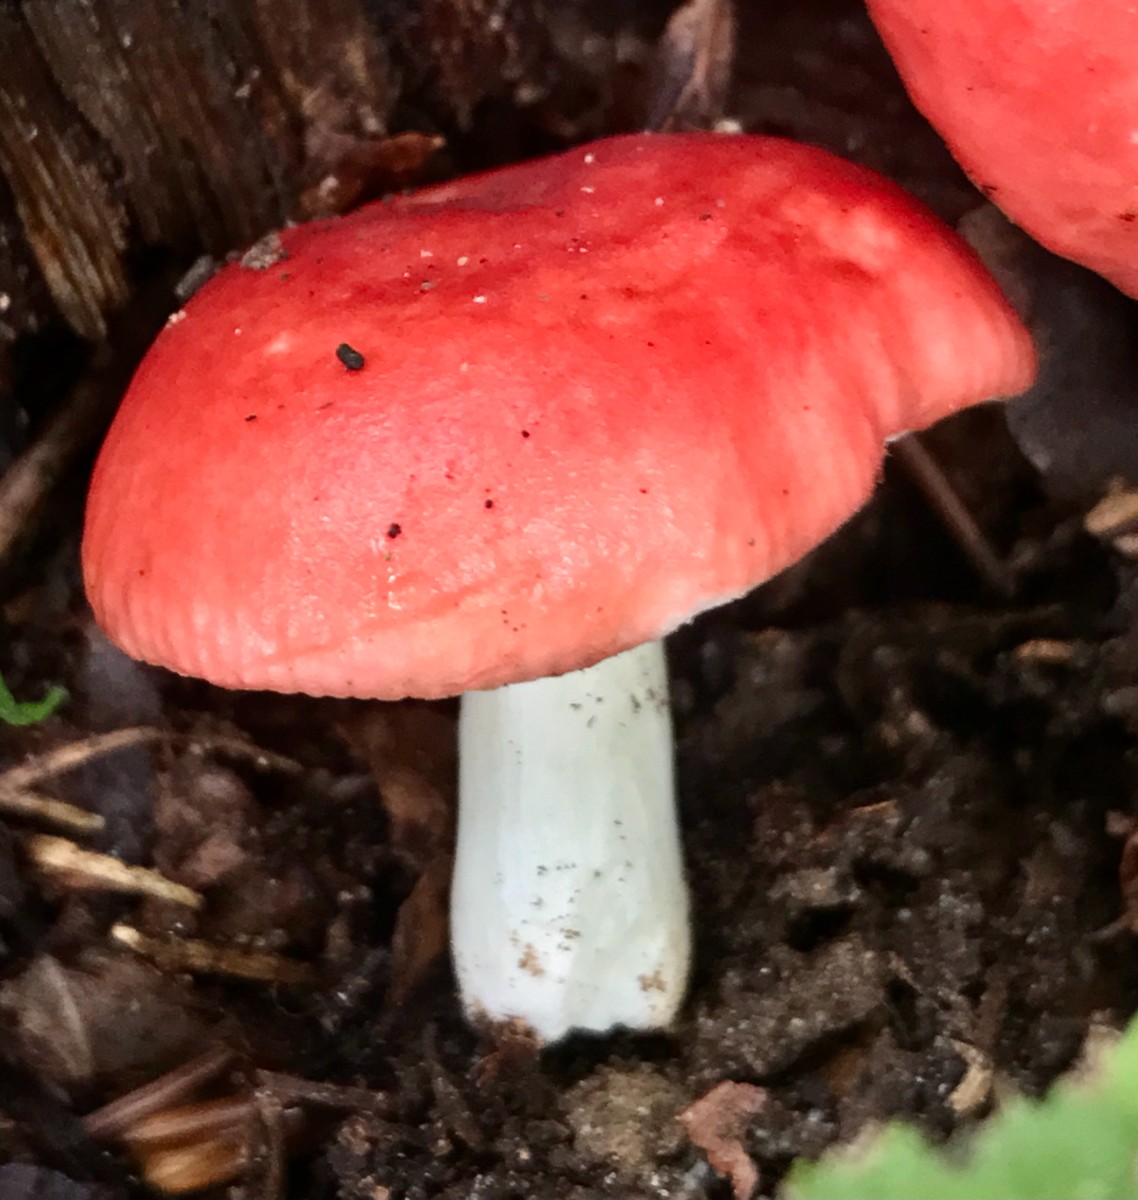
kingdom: Fungi
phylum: Basidiomycota
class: Agaricomycetes
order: Russulales
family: Russulaceae
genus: Russula
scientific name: Russula
